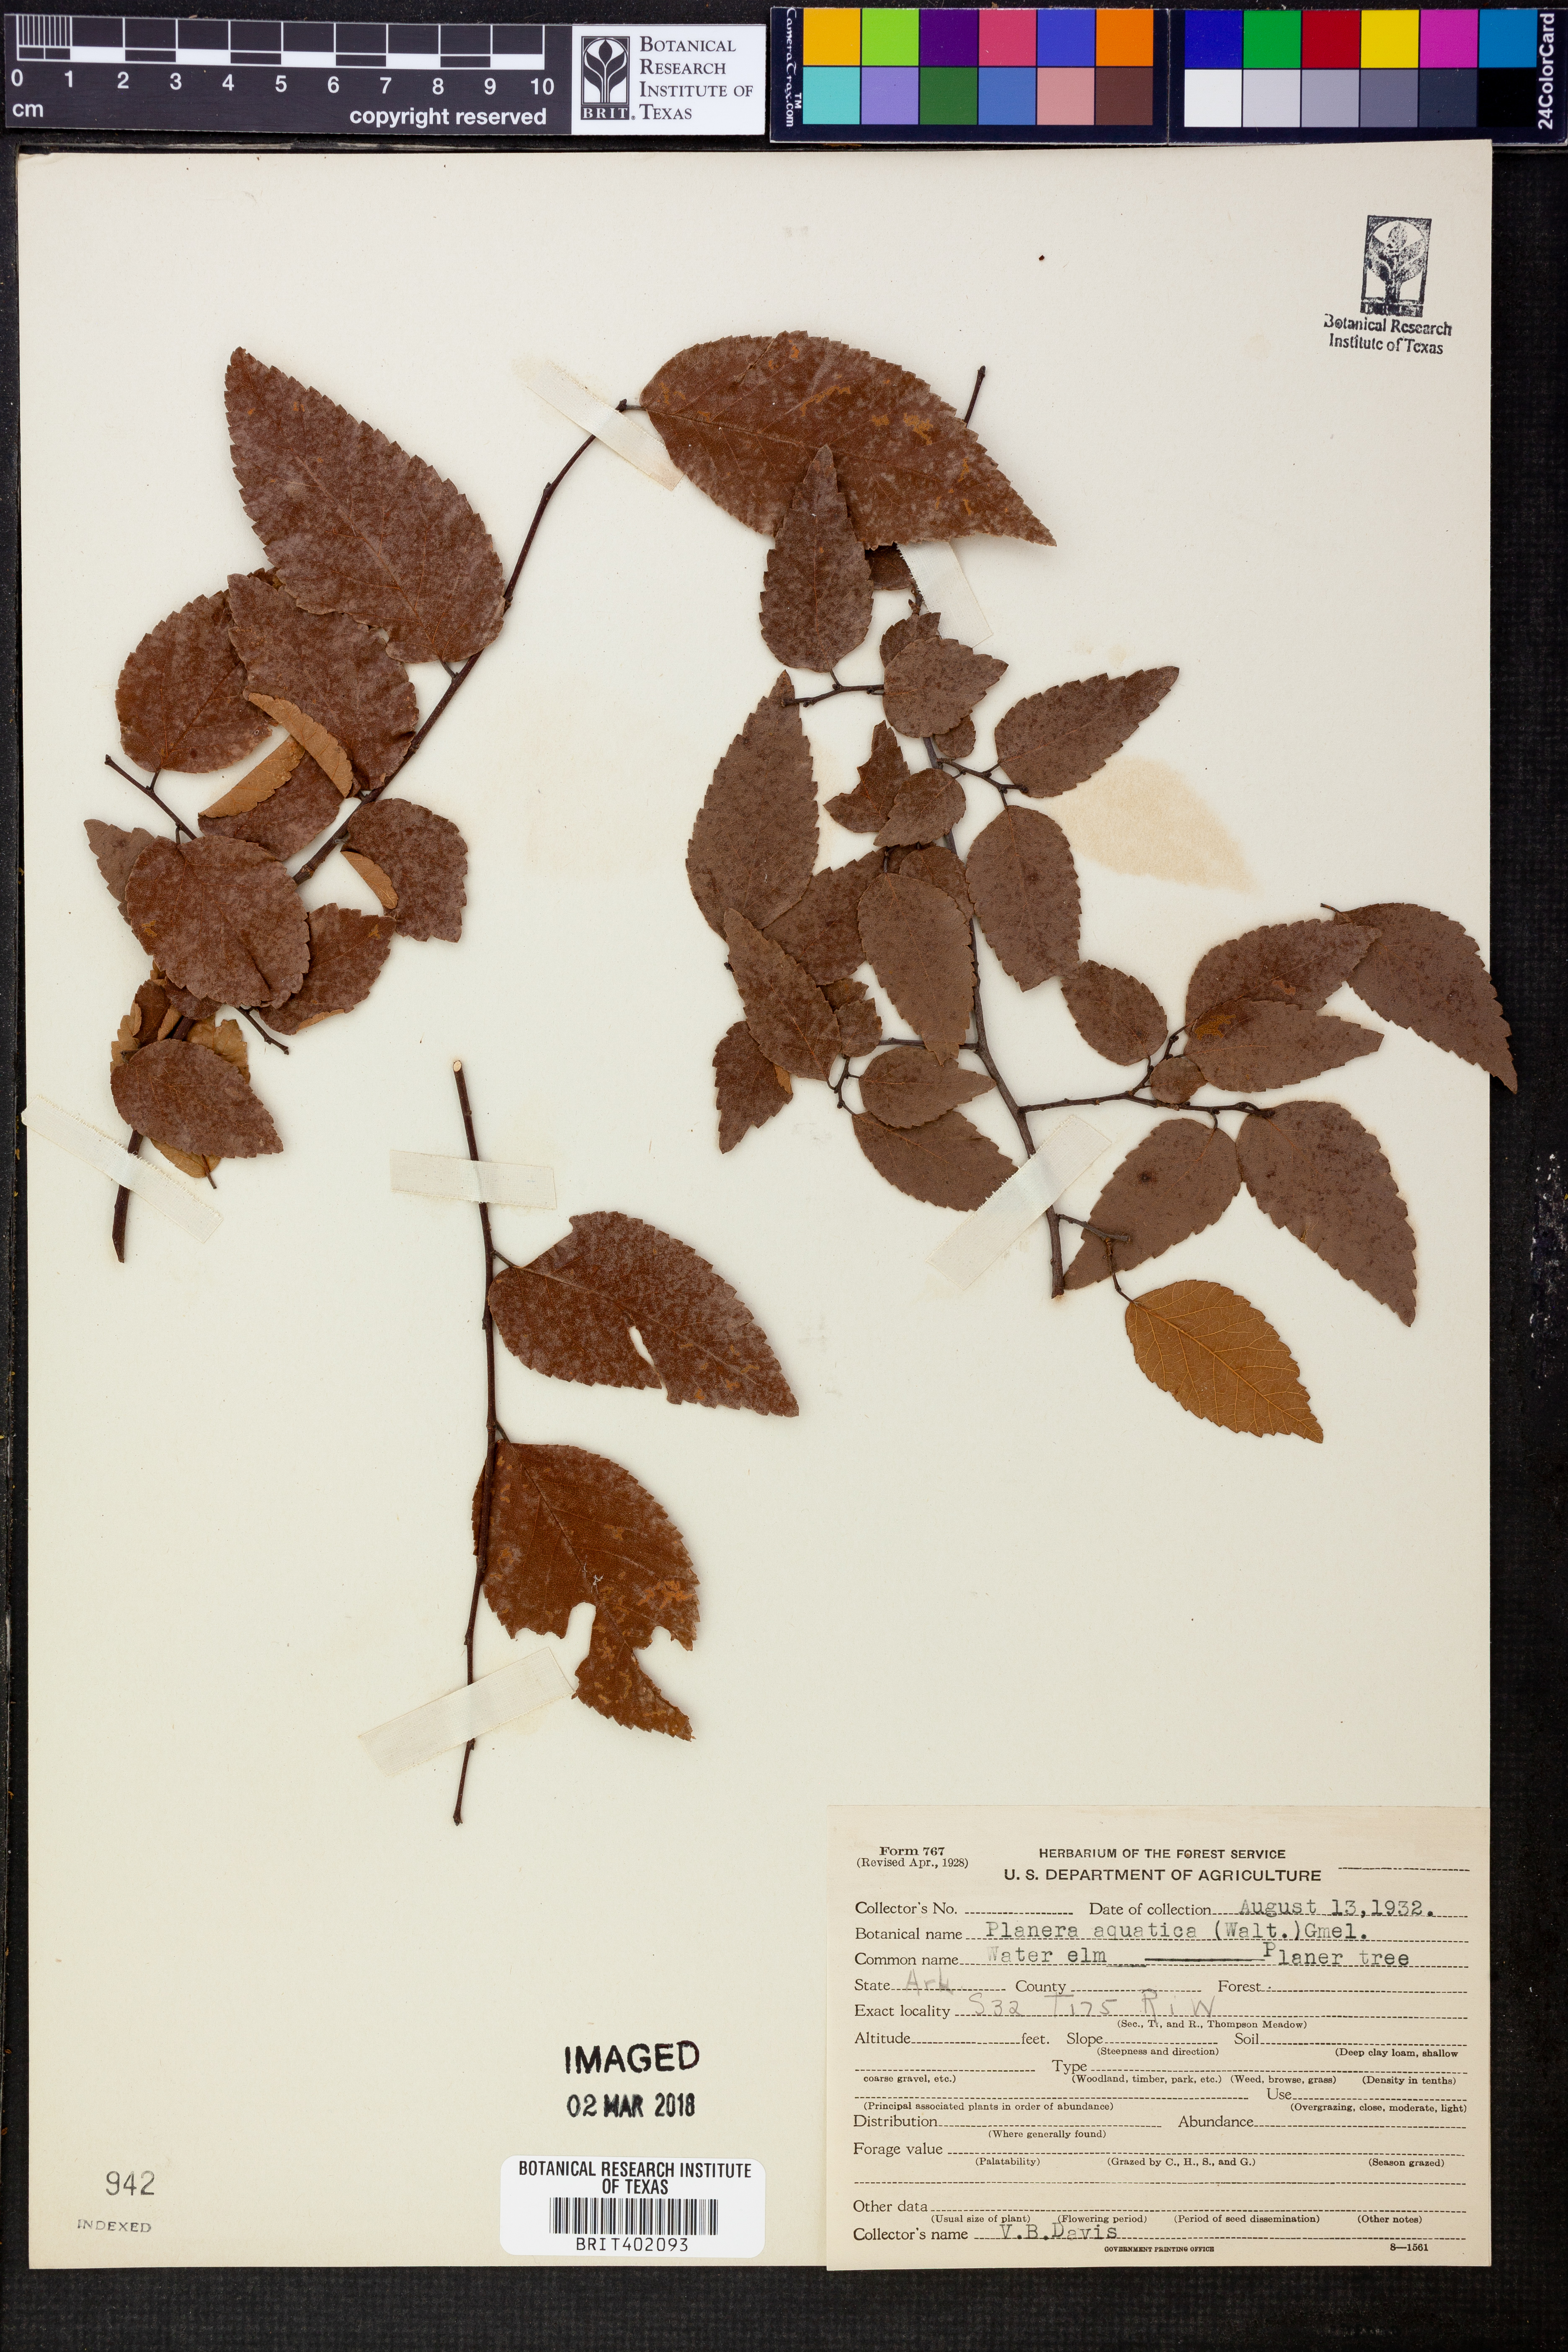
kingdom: Plantae
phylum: Tracheophyta
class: Magnoliopsida
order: Rosales
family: Ulmaceae
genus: Planera
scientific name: Planera aquatica
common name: Water-elm
